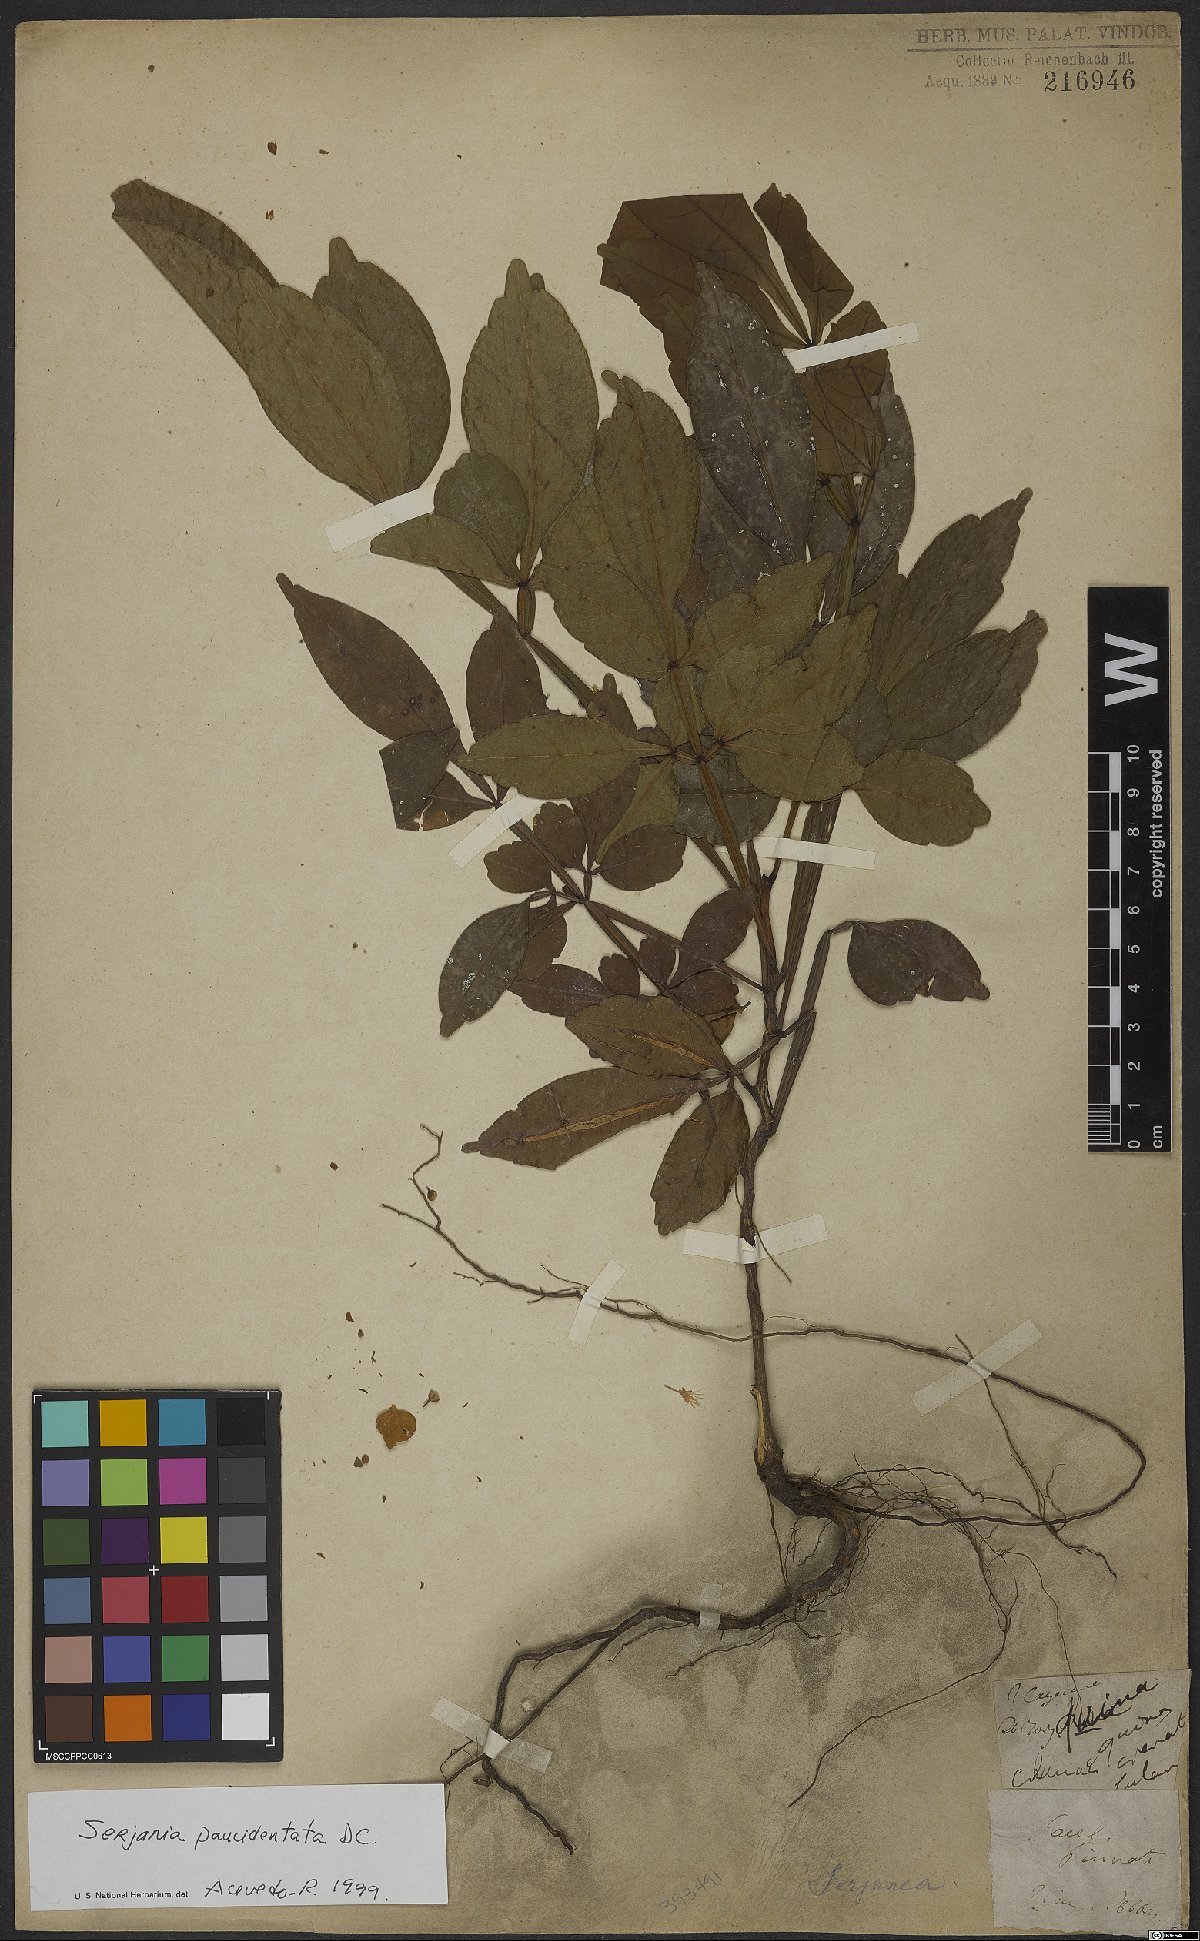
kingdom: Plantae
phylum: Tracheophyta
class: Magnoliopsida
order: Sapindales
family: Sapindaceae
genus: Serjania
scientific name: Serjania paucidentata
